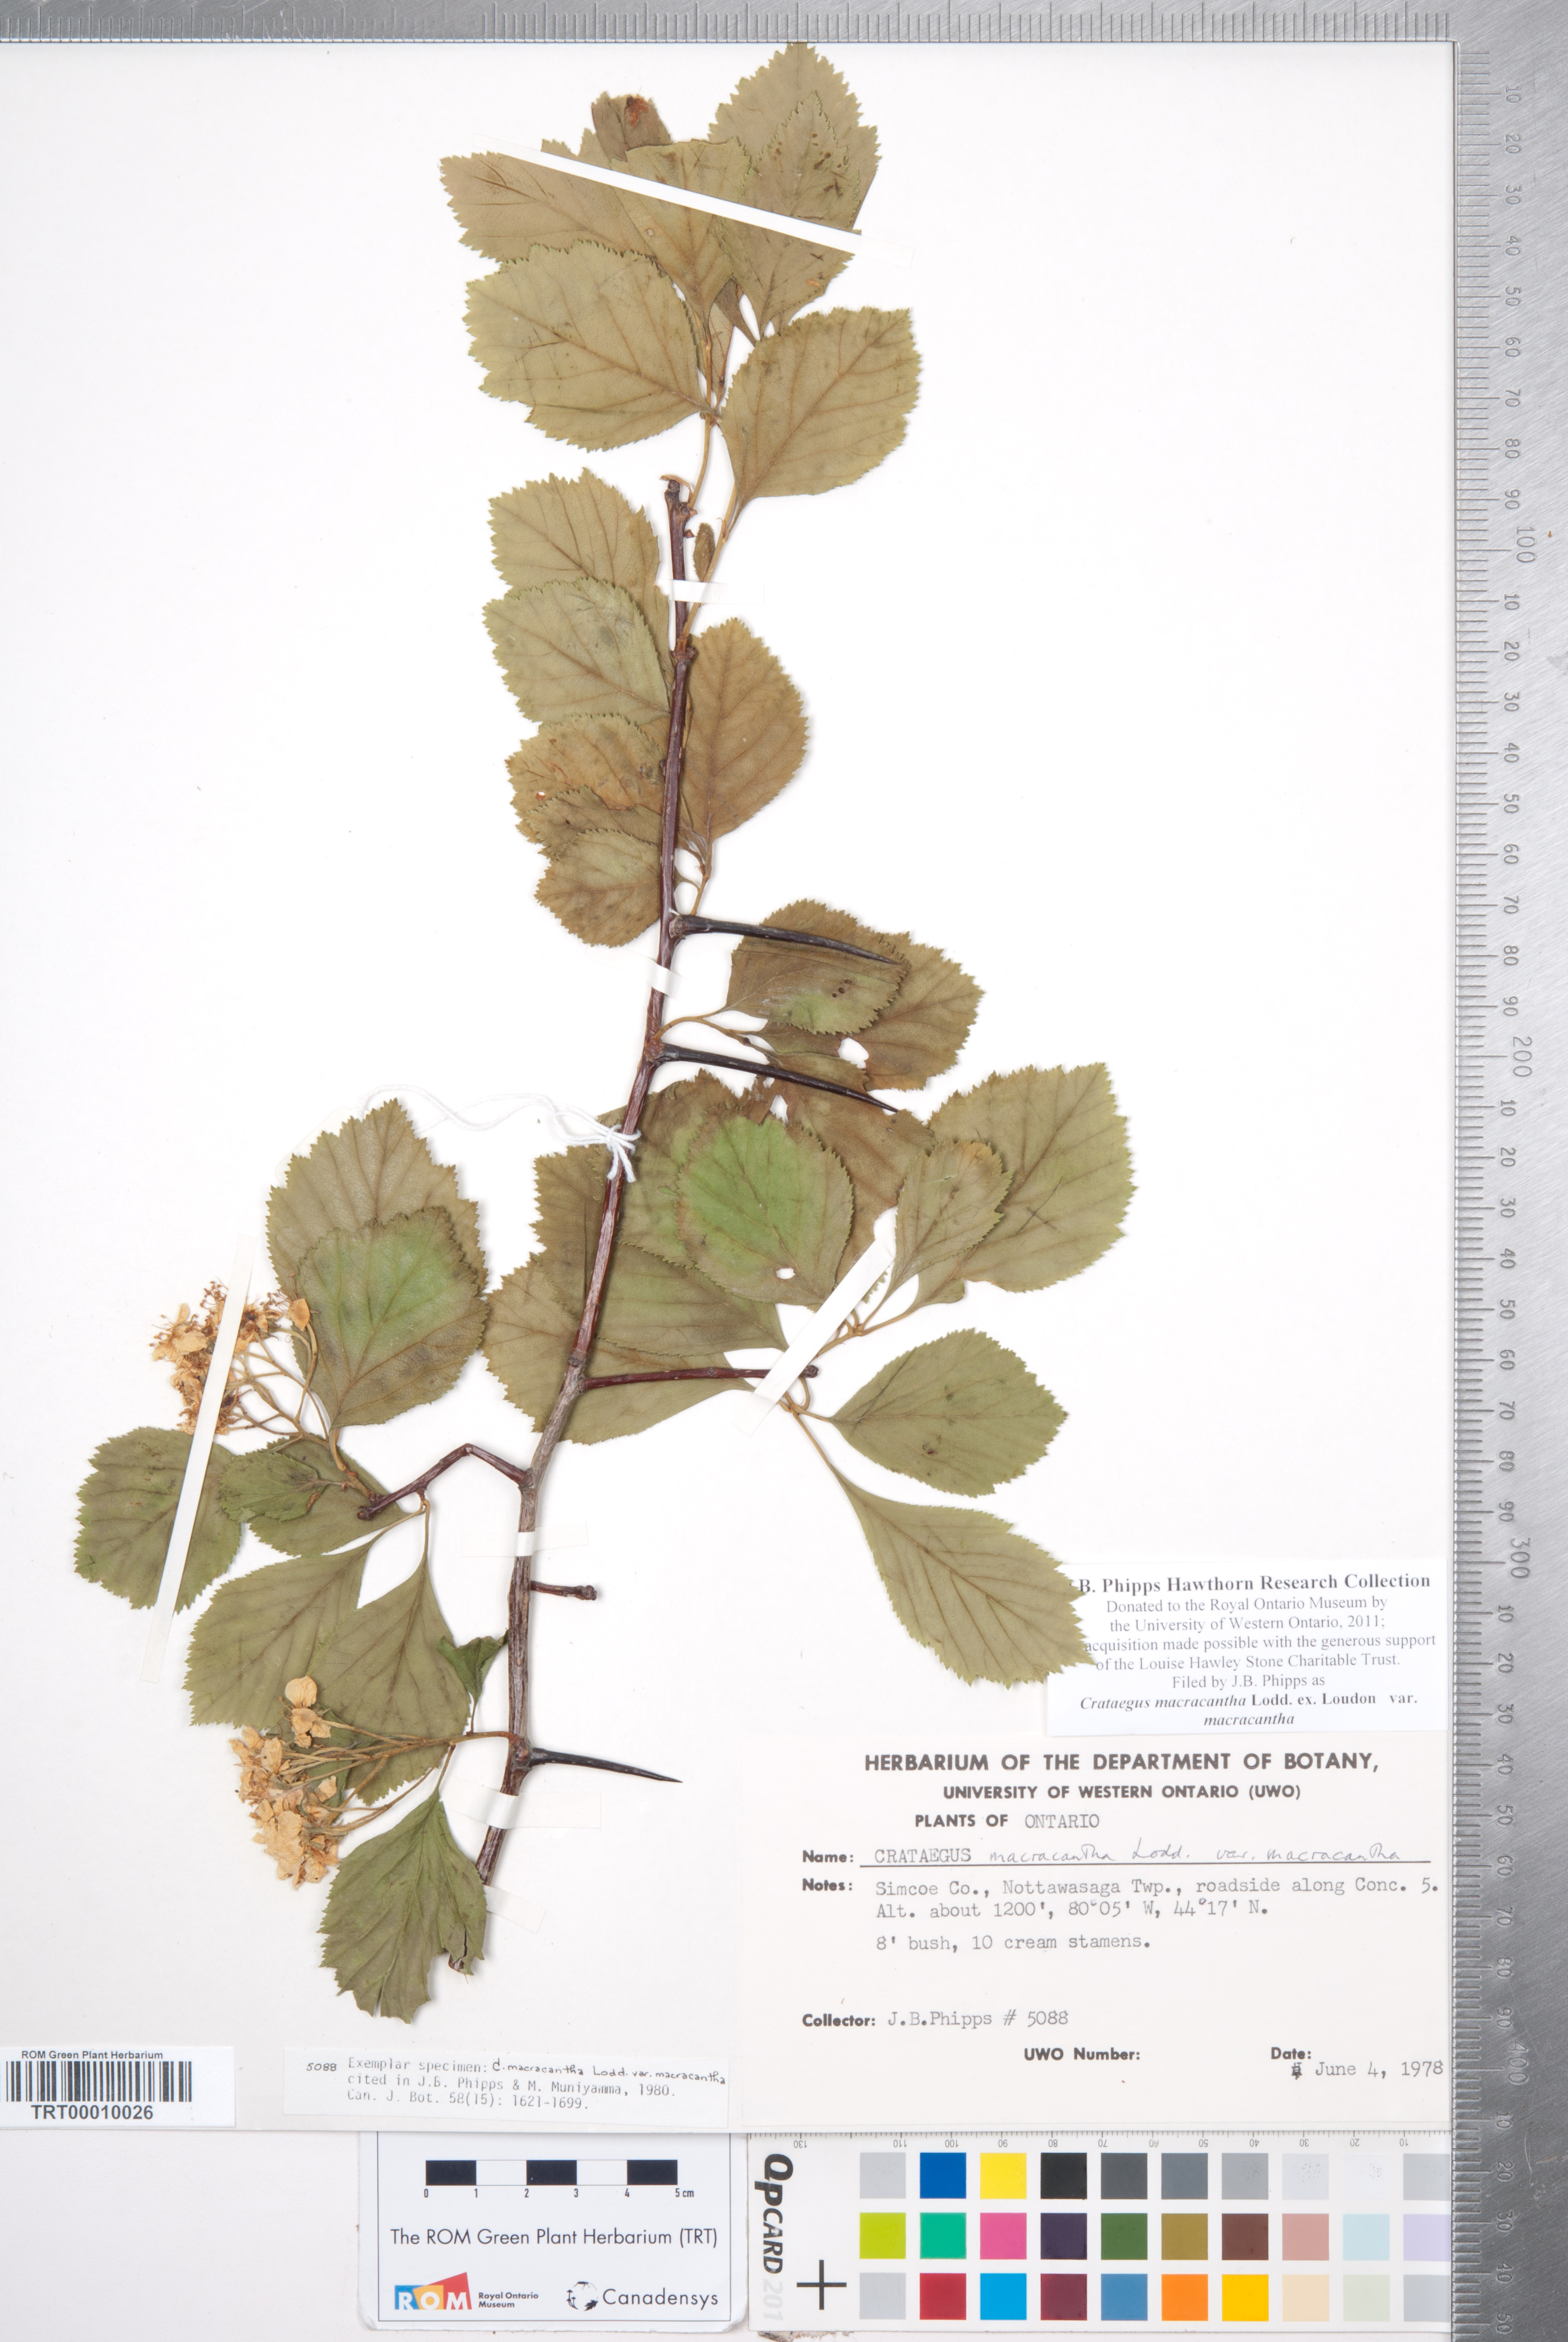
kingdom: Plantae
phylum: Tracheophyta
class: Magnoliopsida
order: Rosales
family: Rosaceae
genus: Crataegus
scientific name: Crataegus macracantha
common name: Large-thorn hawthorn
